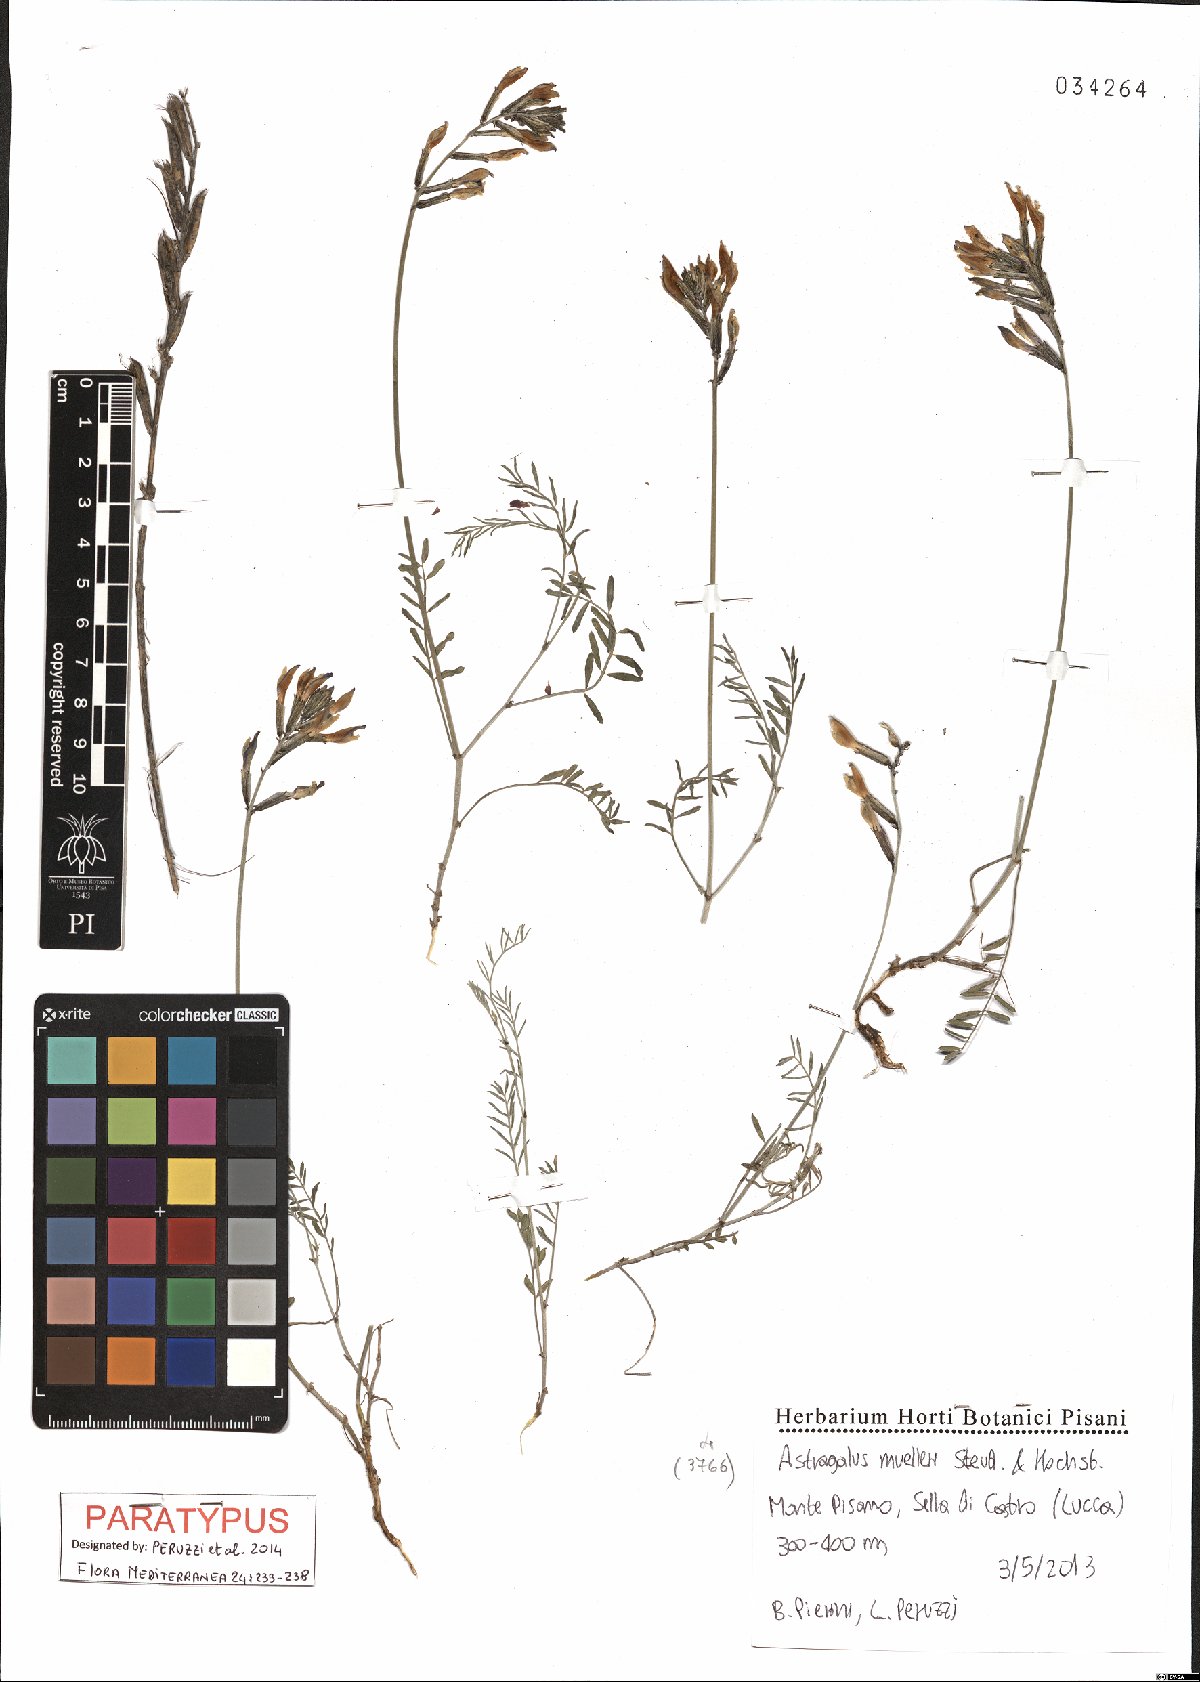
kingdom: Plantae
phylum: Tracheophyta
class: Magnoliopsida
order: Fabales
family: Fabaceae
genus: Astragalus
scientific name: Astragalus muelleri
